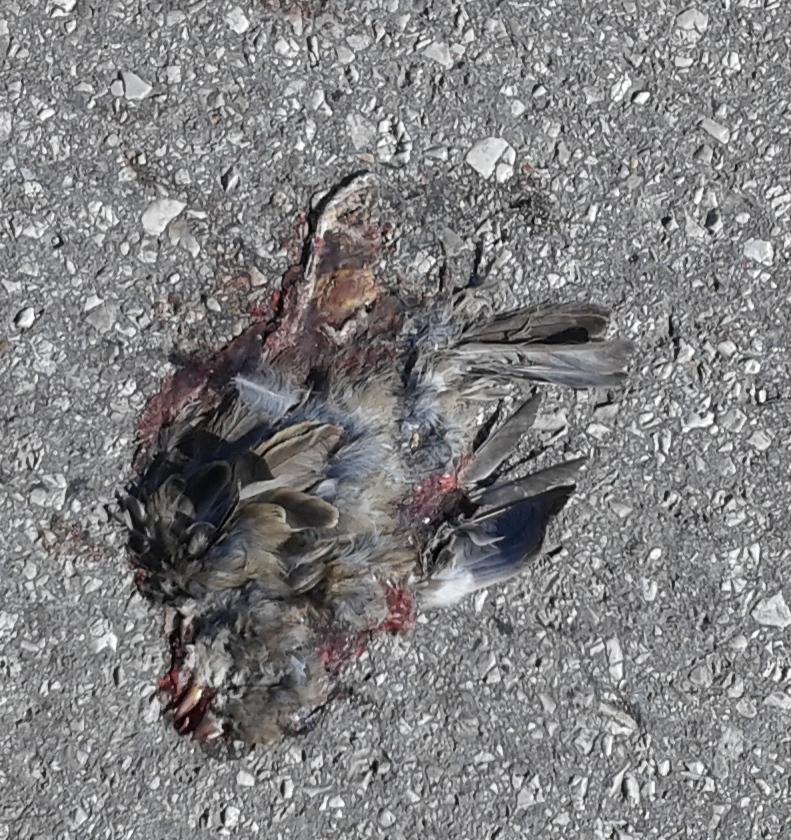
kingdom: Animalia
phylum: Chordata
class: Aves
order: Passeriformes
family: Fringillidae
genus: Fringilla
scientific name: Fringilla coelebs
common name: Common chaffinch
